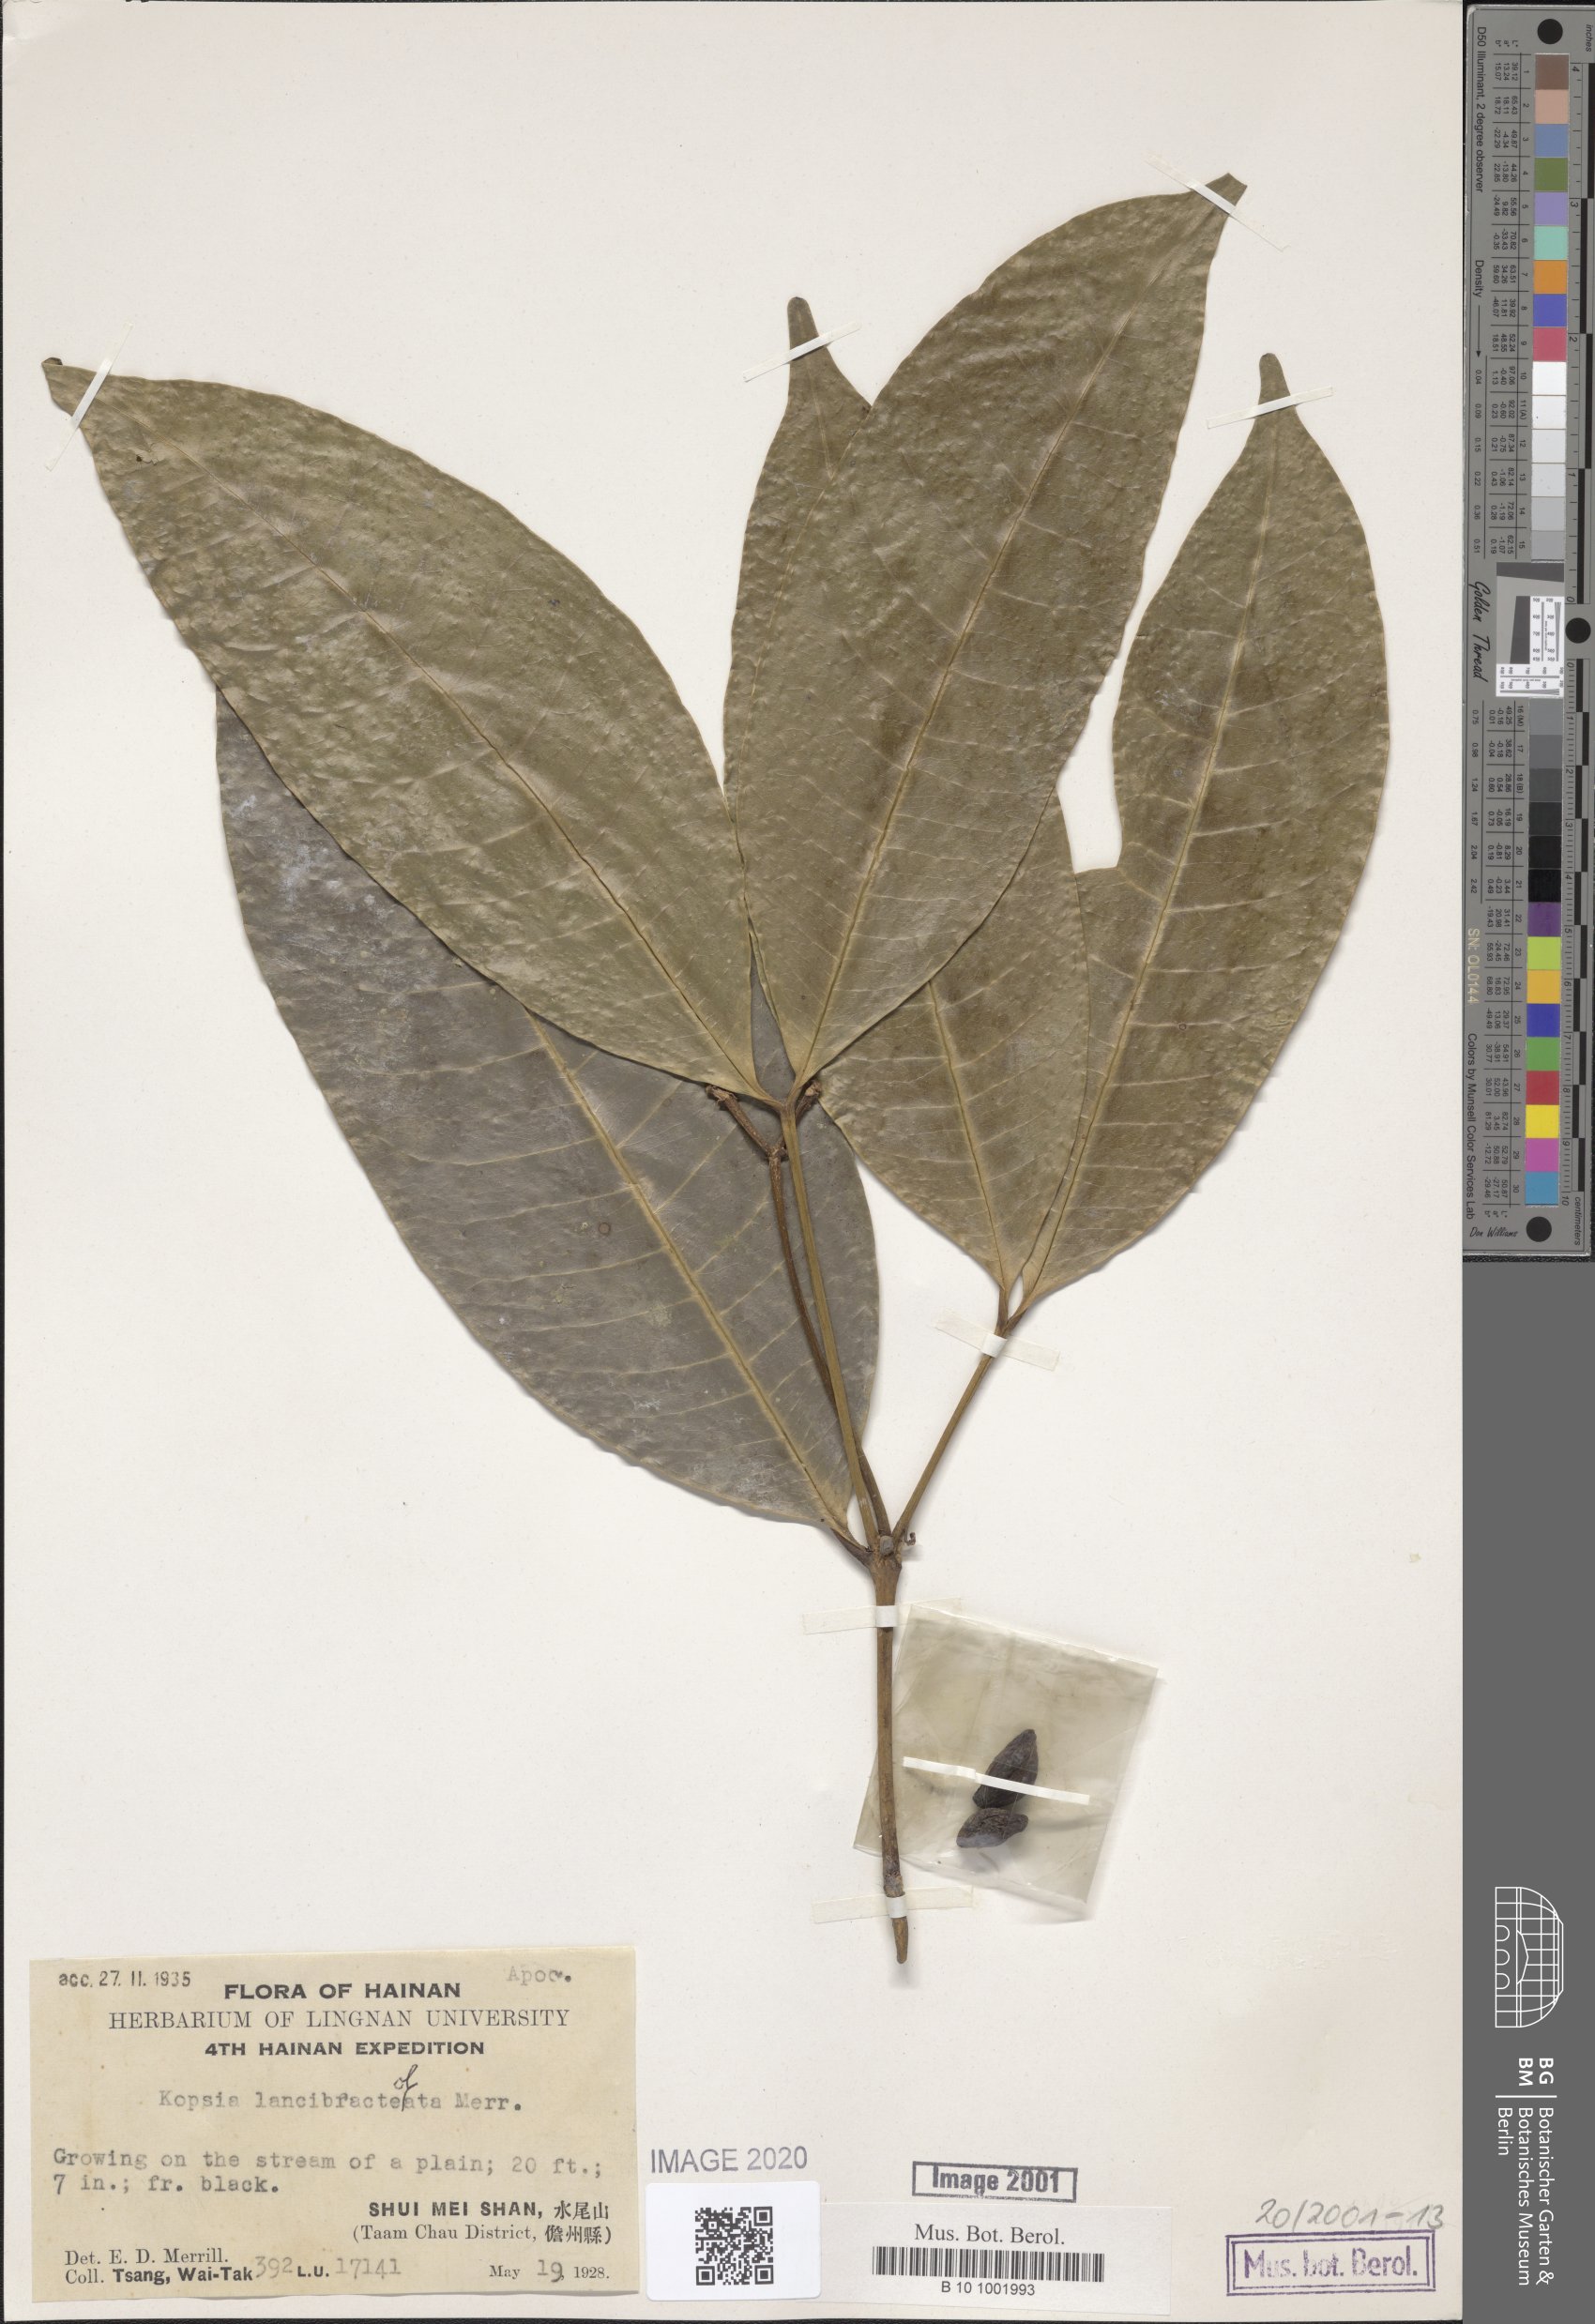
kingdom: Plantae
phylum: Tracheophyta
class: Magnoliopsida
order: Gentianales
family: Apocynaceae
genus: Kopsia
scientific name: Kopsia arborea
